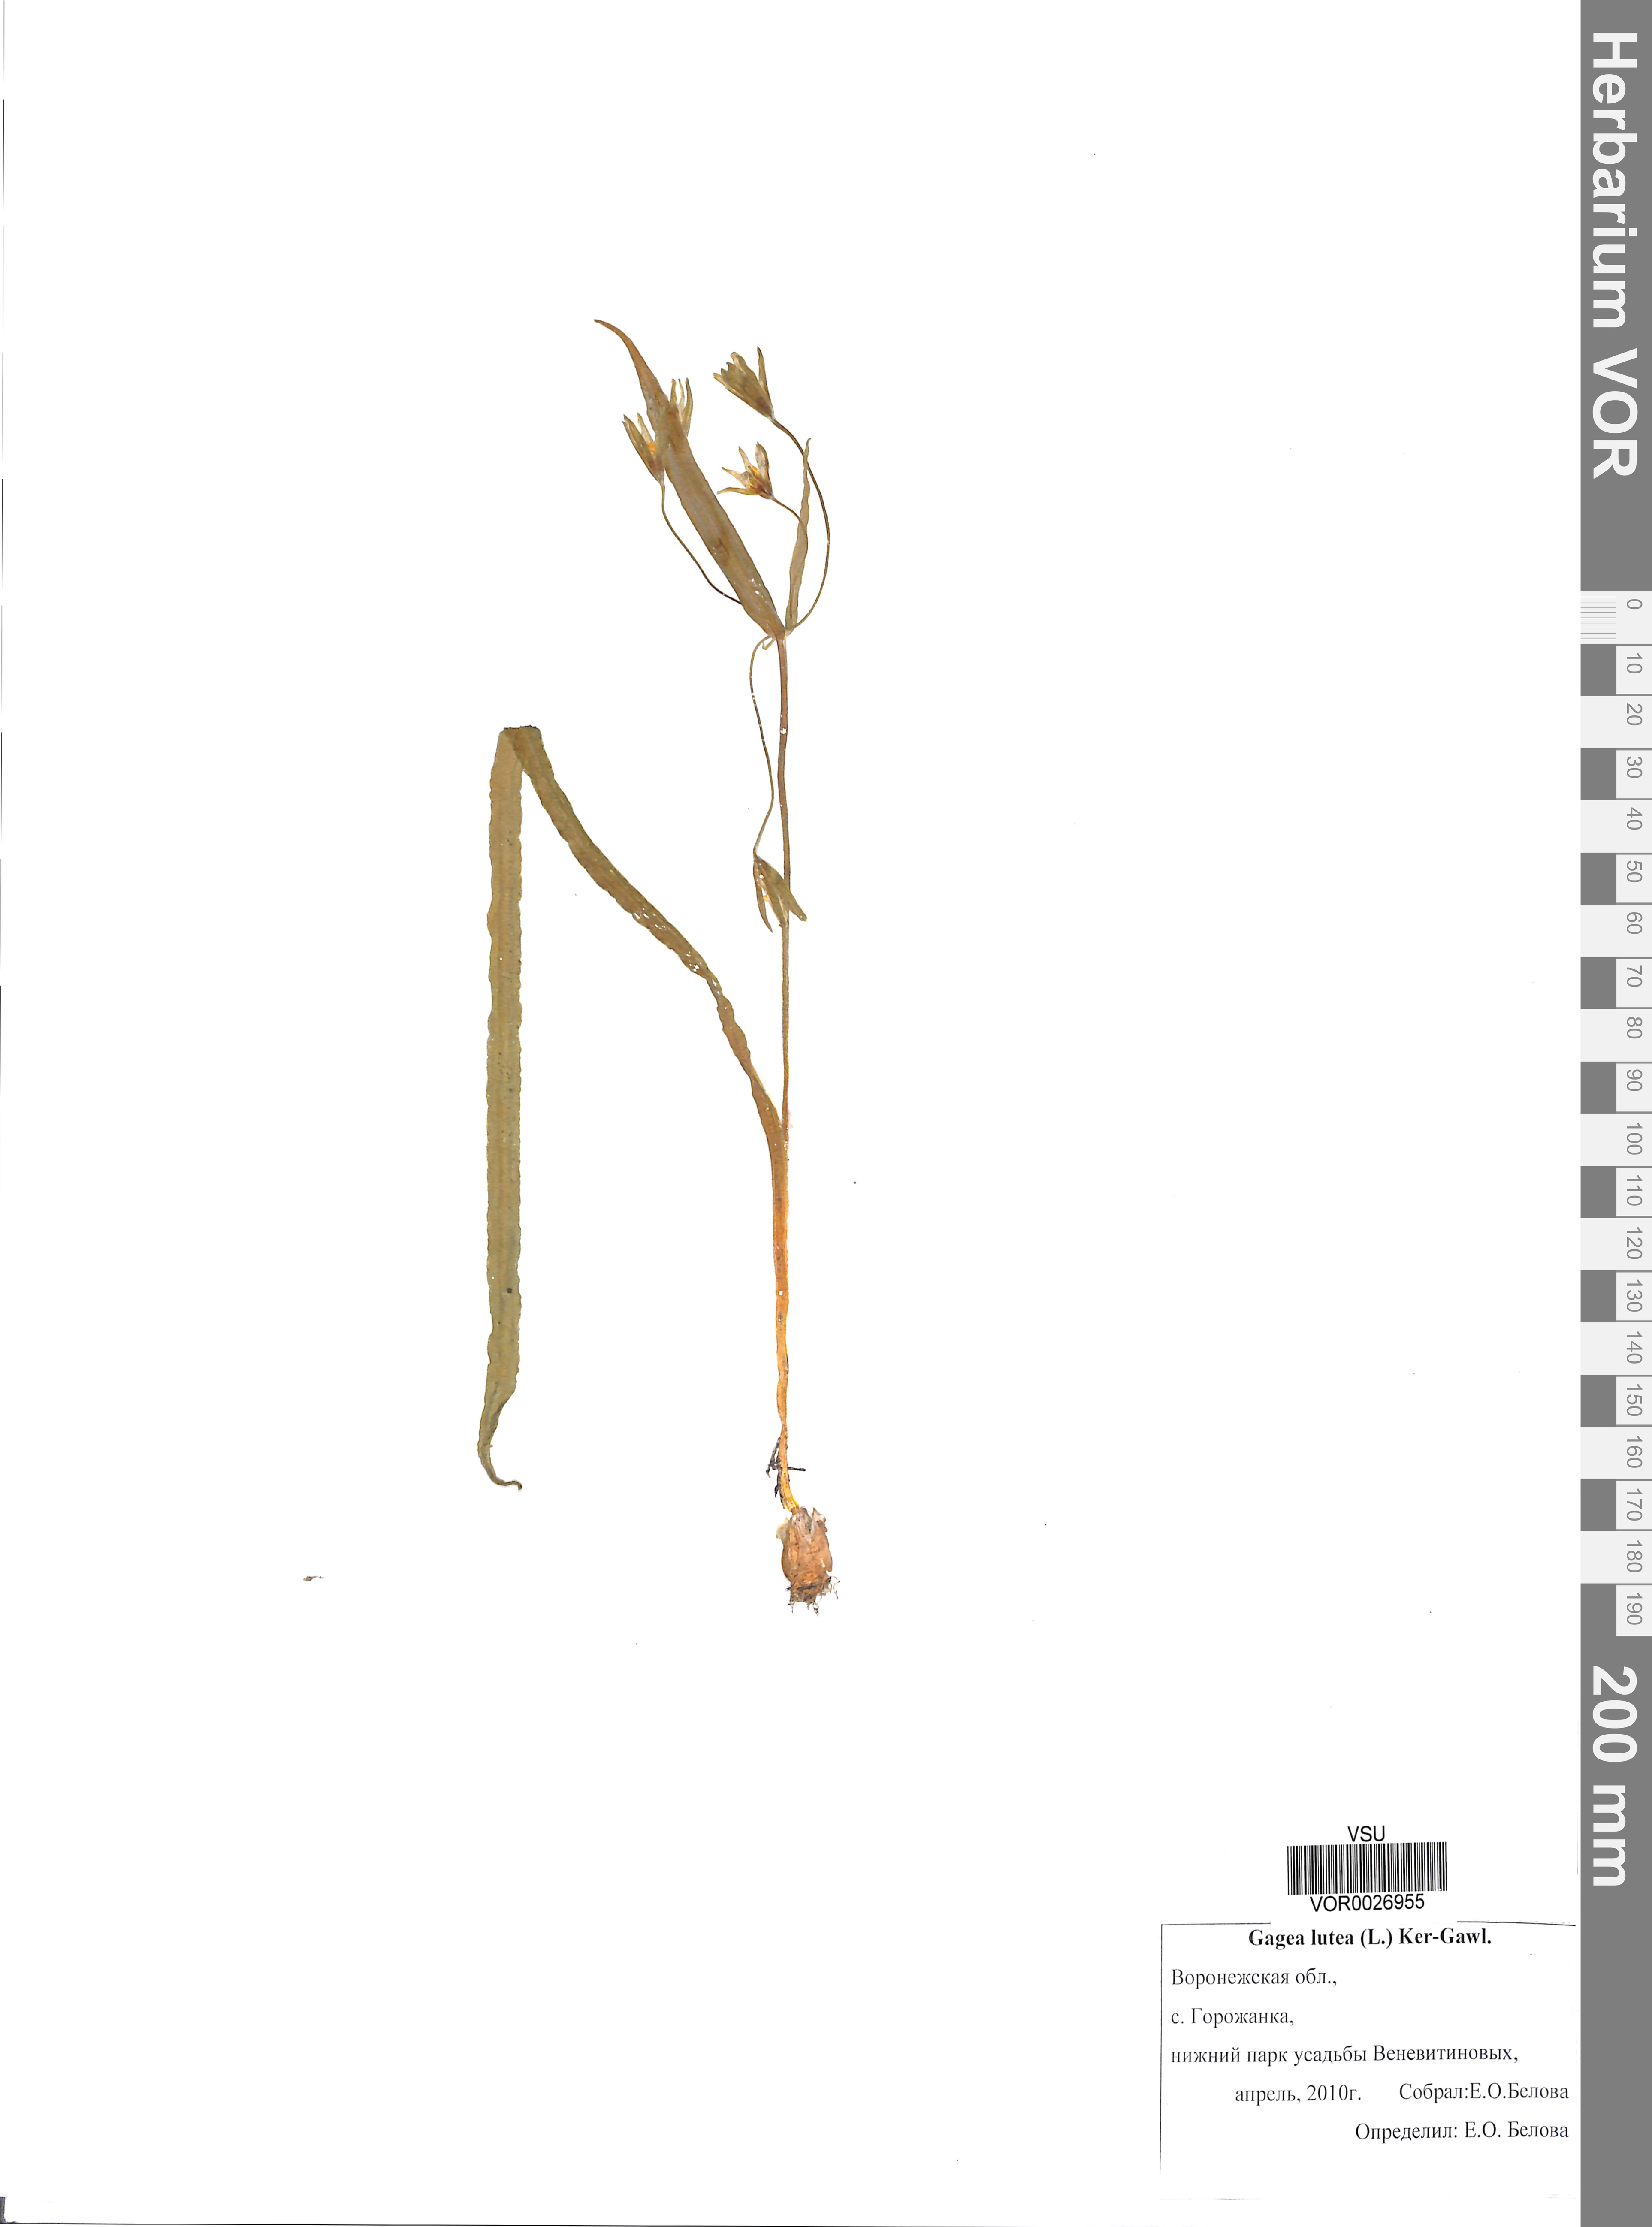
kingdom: Plantae
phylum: Tracheophyta
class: Liliopsida
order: Liliales
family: Liliaceae
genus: Gagea
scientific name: Gagea lutea
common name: Yellow star-of-bethlehem
